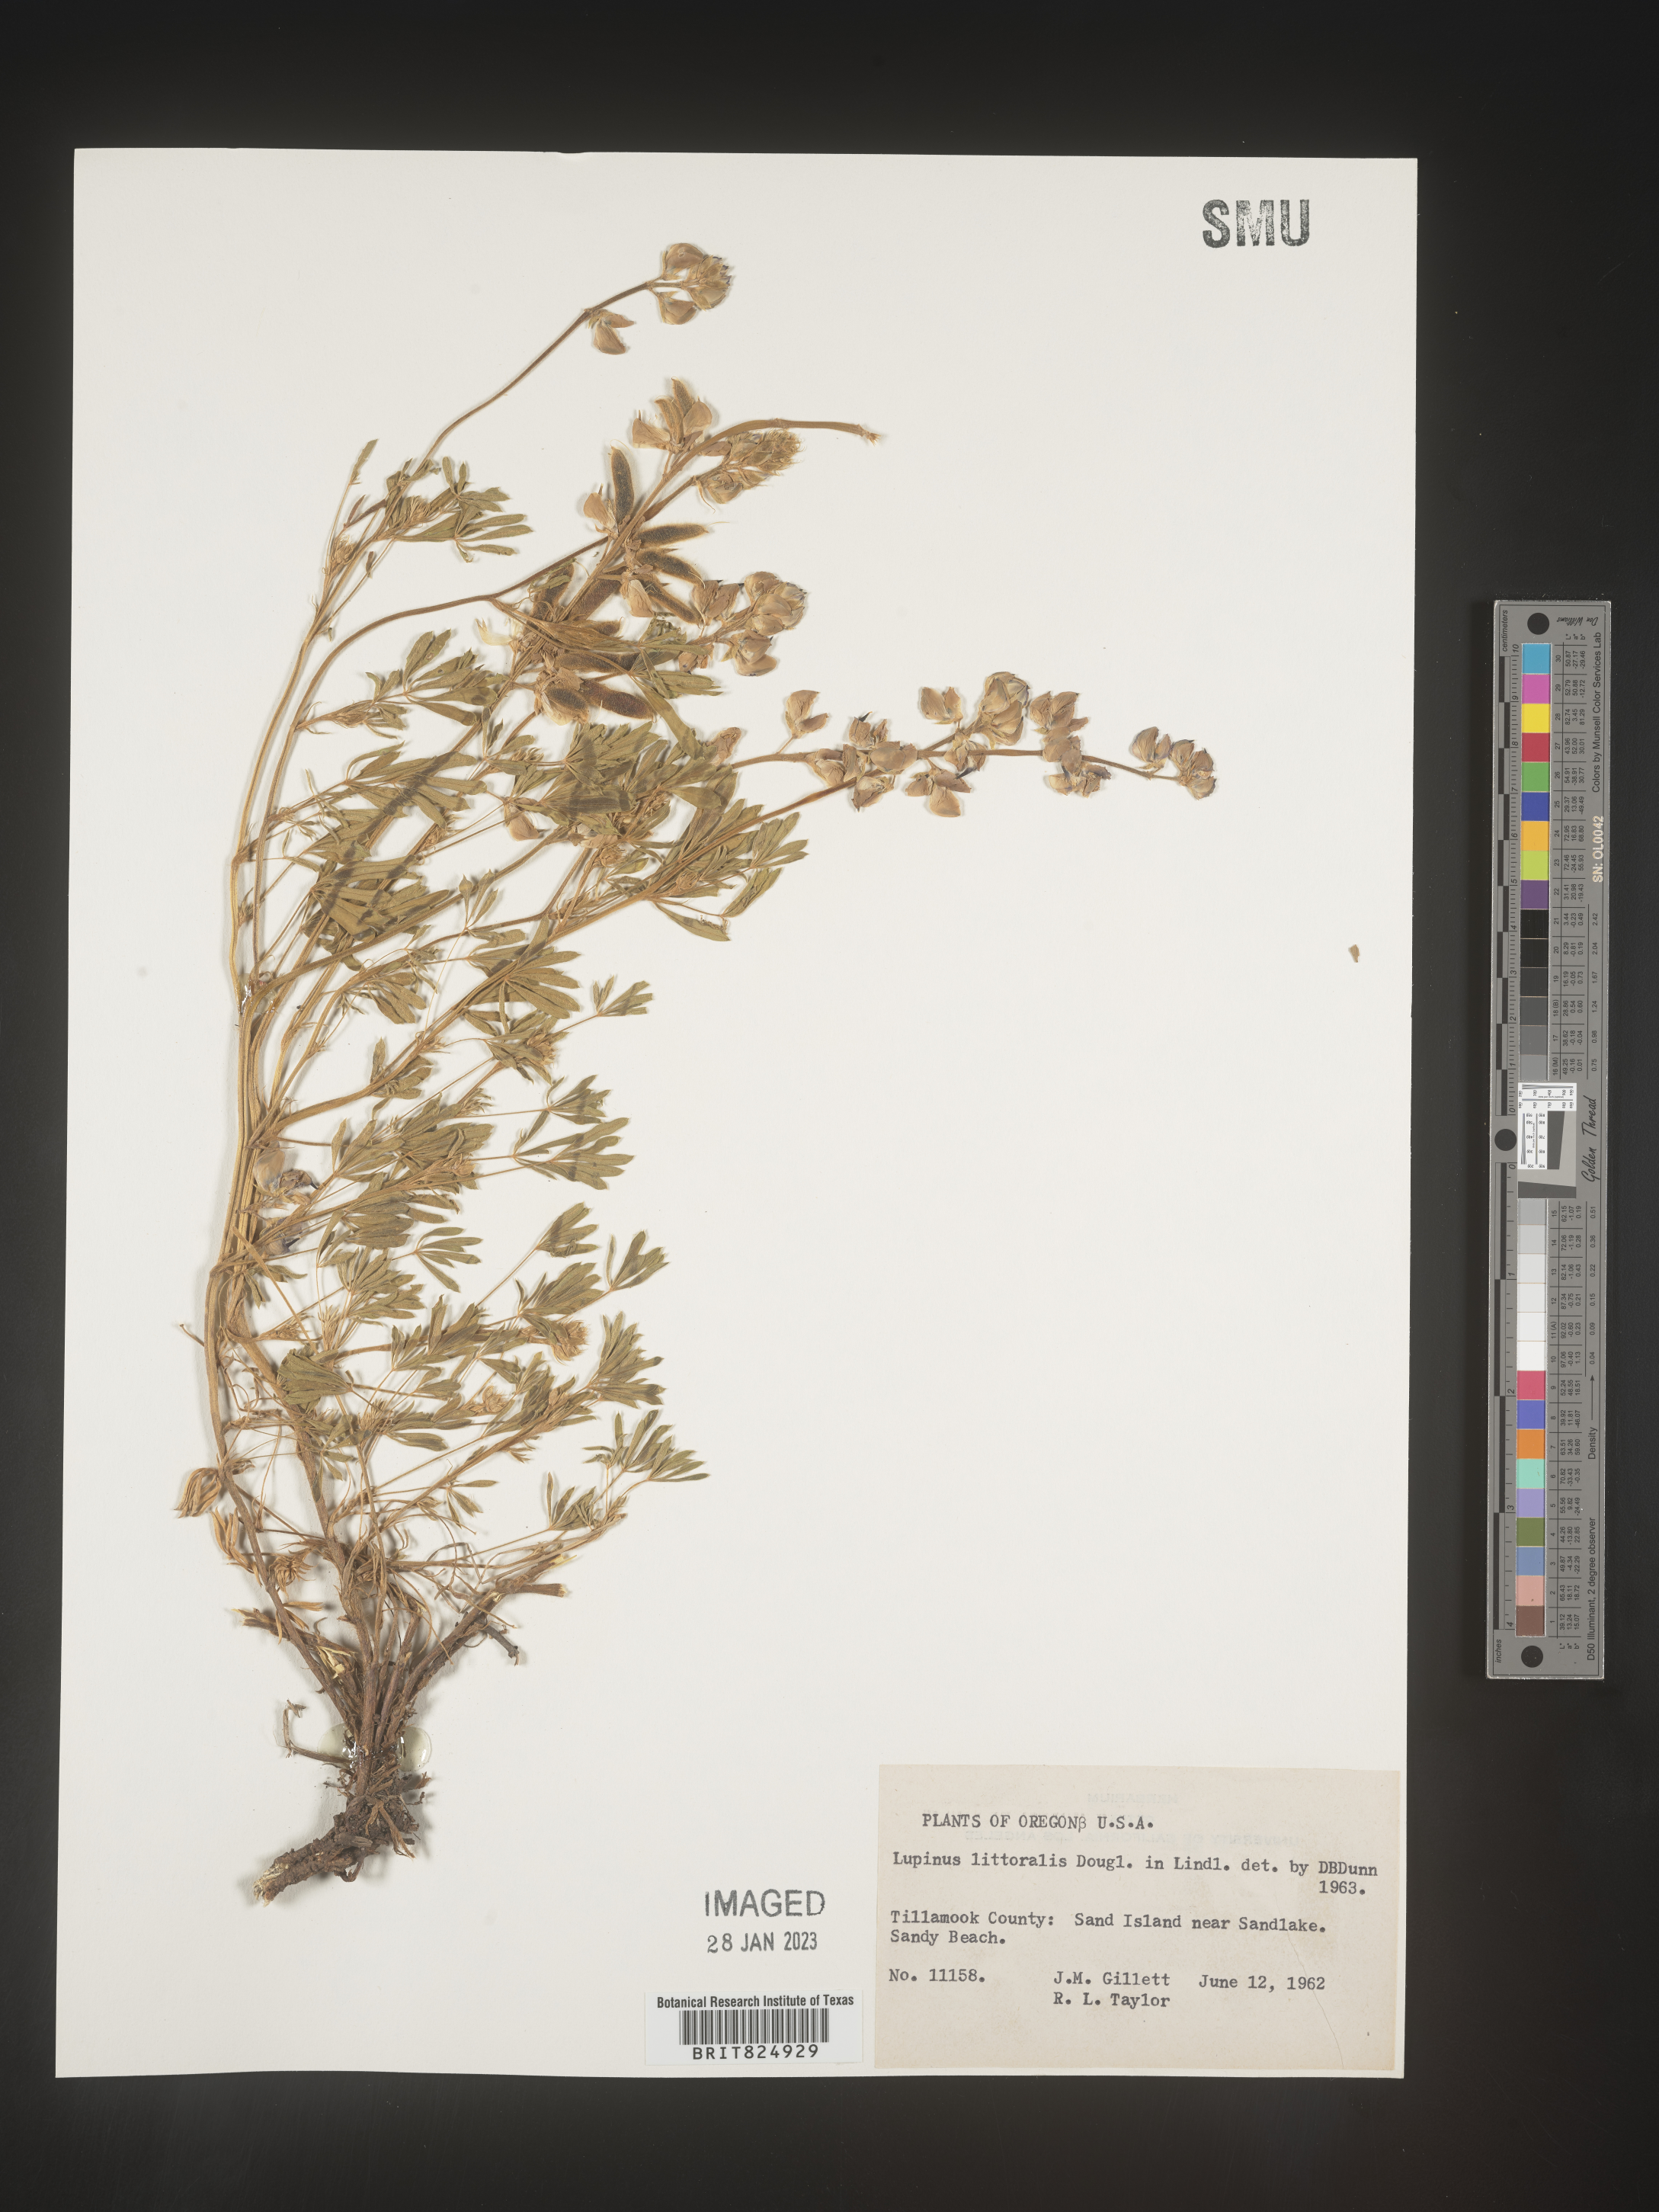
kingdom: Plantae
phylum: Tracheophyta
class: Magnoliopsida
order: Fabales
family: Fabaceae
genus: Lupinus
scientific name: Lupinus
